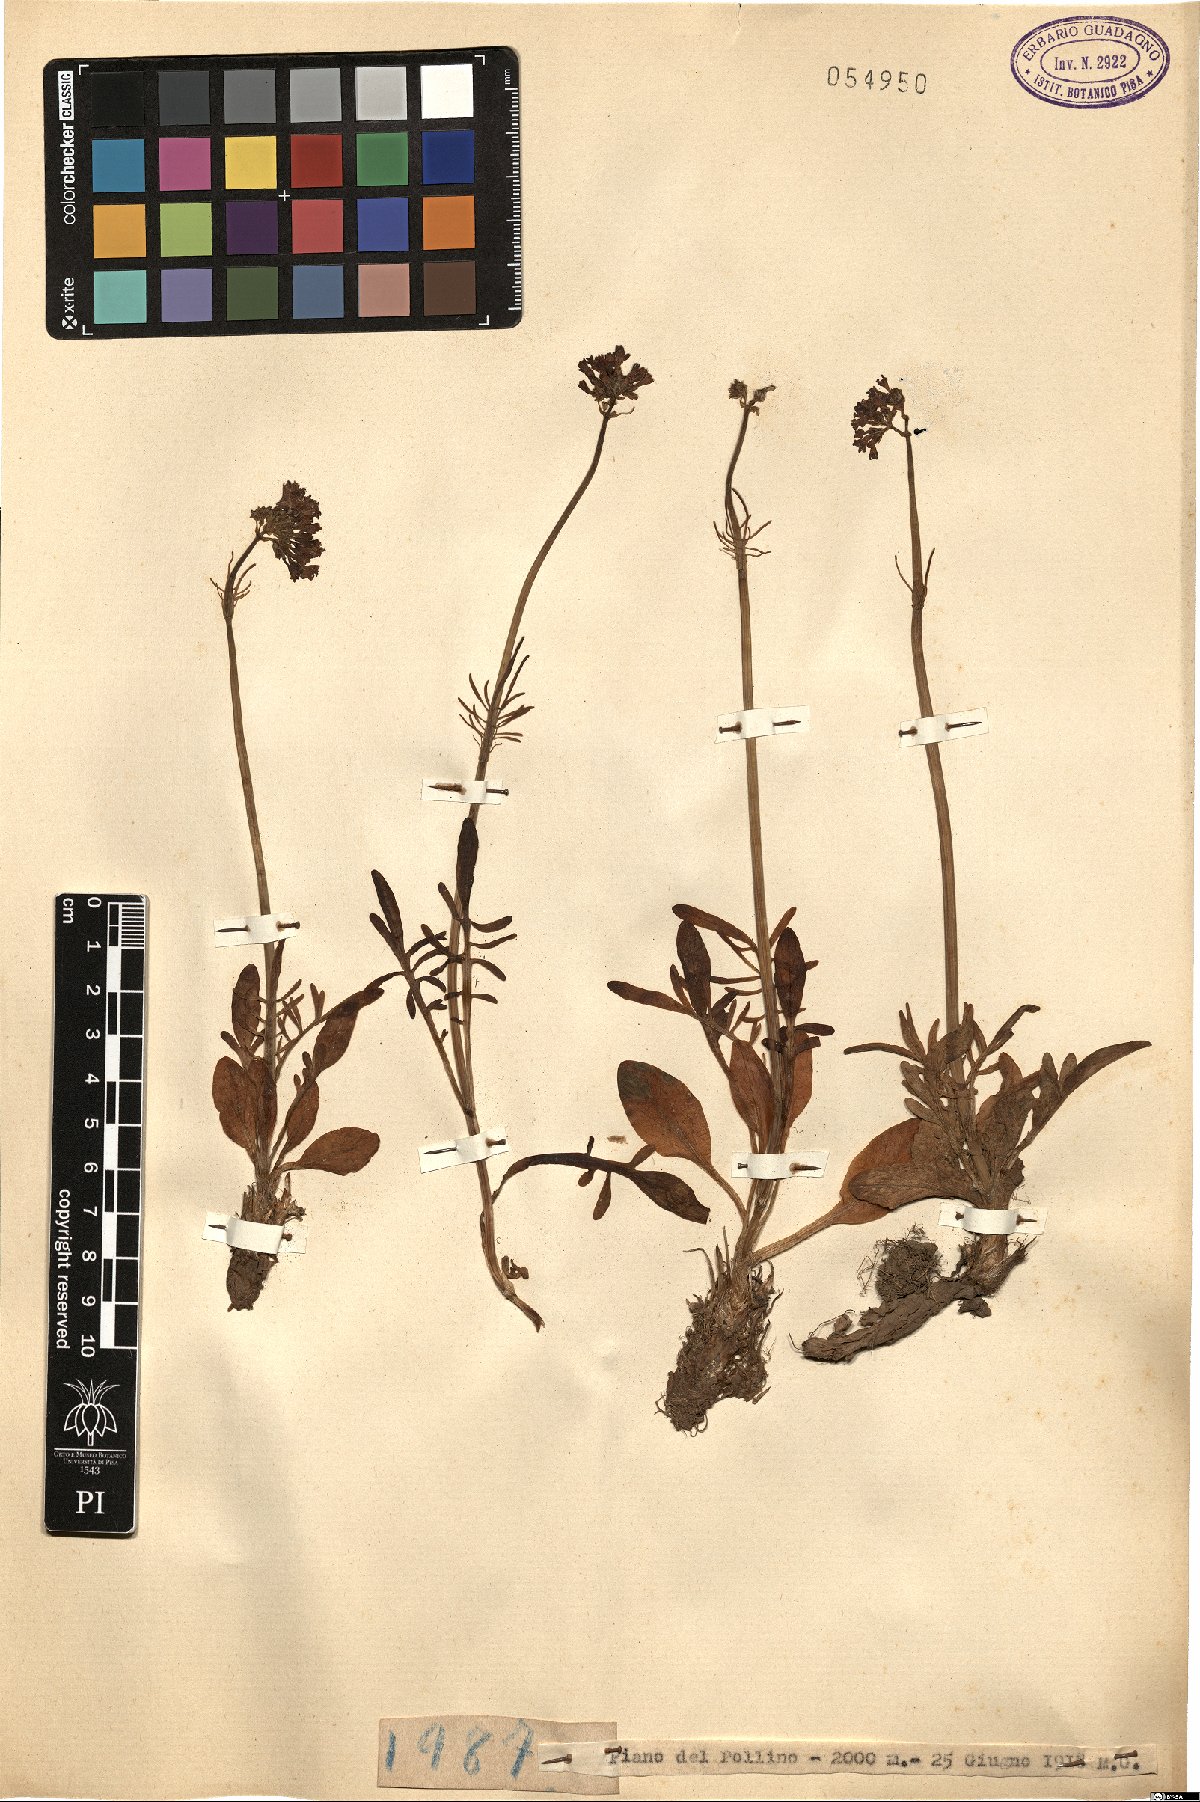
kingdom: Plantae
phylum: Tracheophyta
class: Magnoliopsida
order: Dipsacales
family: Caprifoliaceae
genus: Valeriana
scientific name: Valeriana
